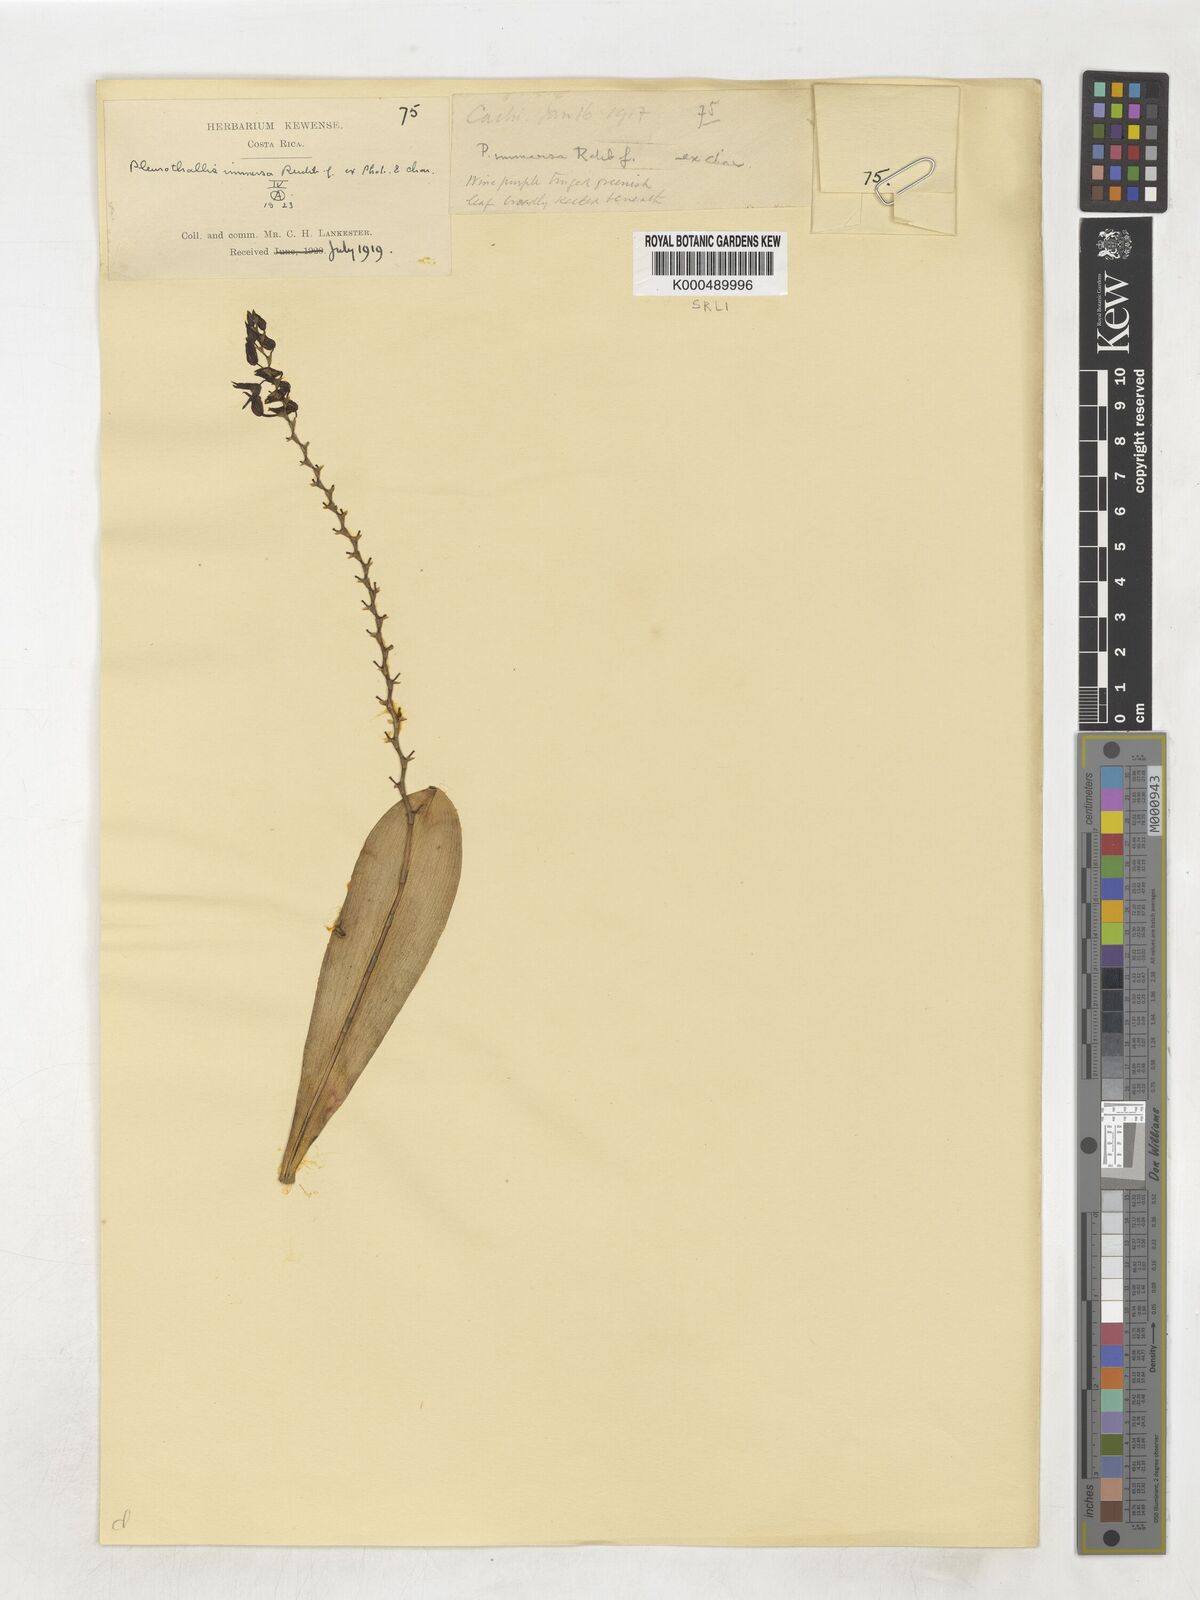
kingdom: Plantae
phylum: Tracheophyta
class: Liliopsida
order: Asparagales
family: Orchidaceae
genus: Stelis
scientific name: Stelis immersa
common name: Sunken pleurothallis
